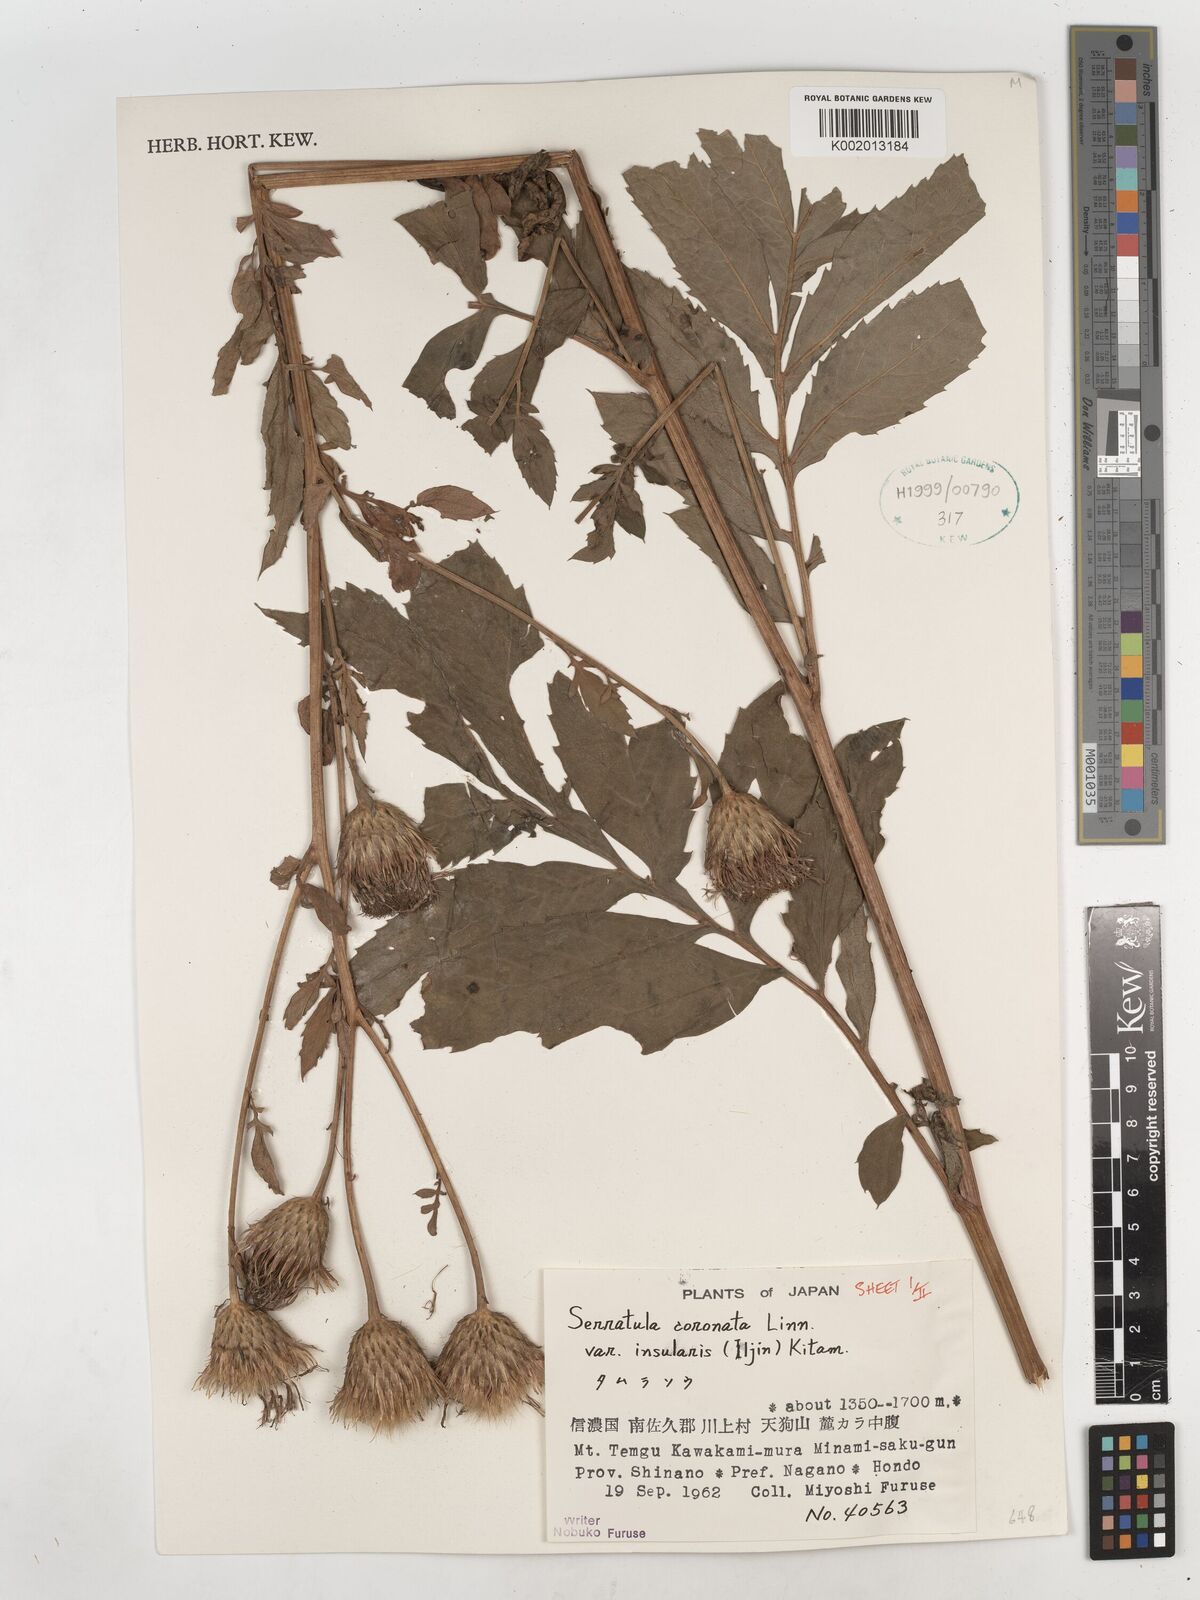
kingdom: Plantae
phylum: Tracheophyta
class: Magnoliopsida
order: Asterales
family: Asteraceae
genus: Serratula
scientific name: Serratula coronata
